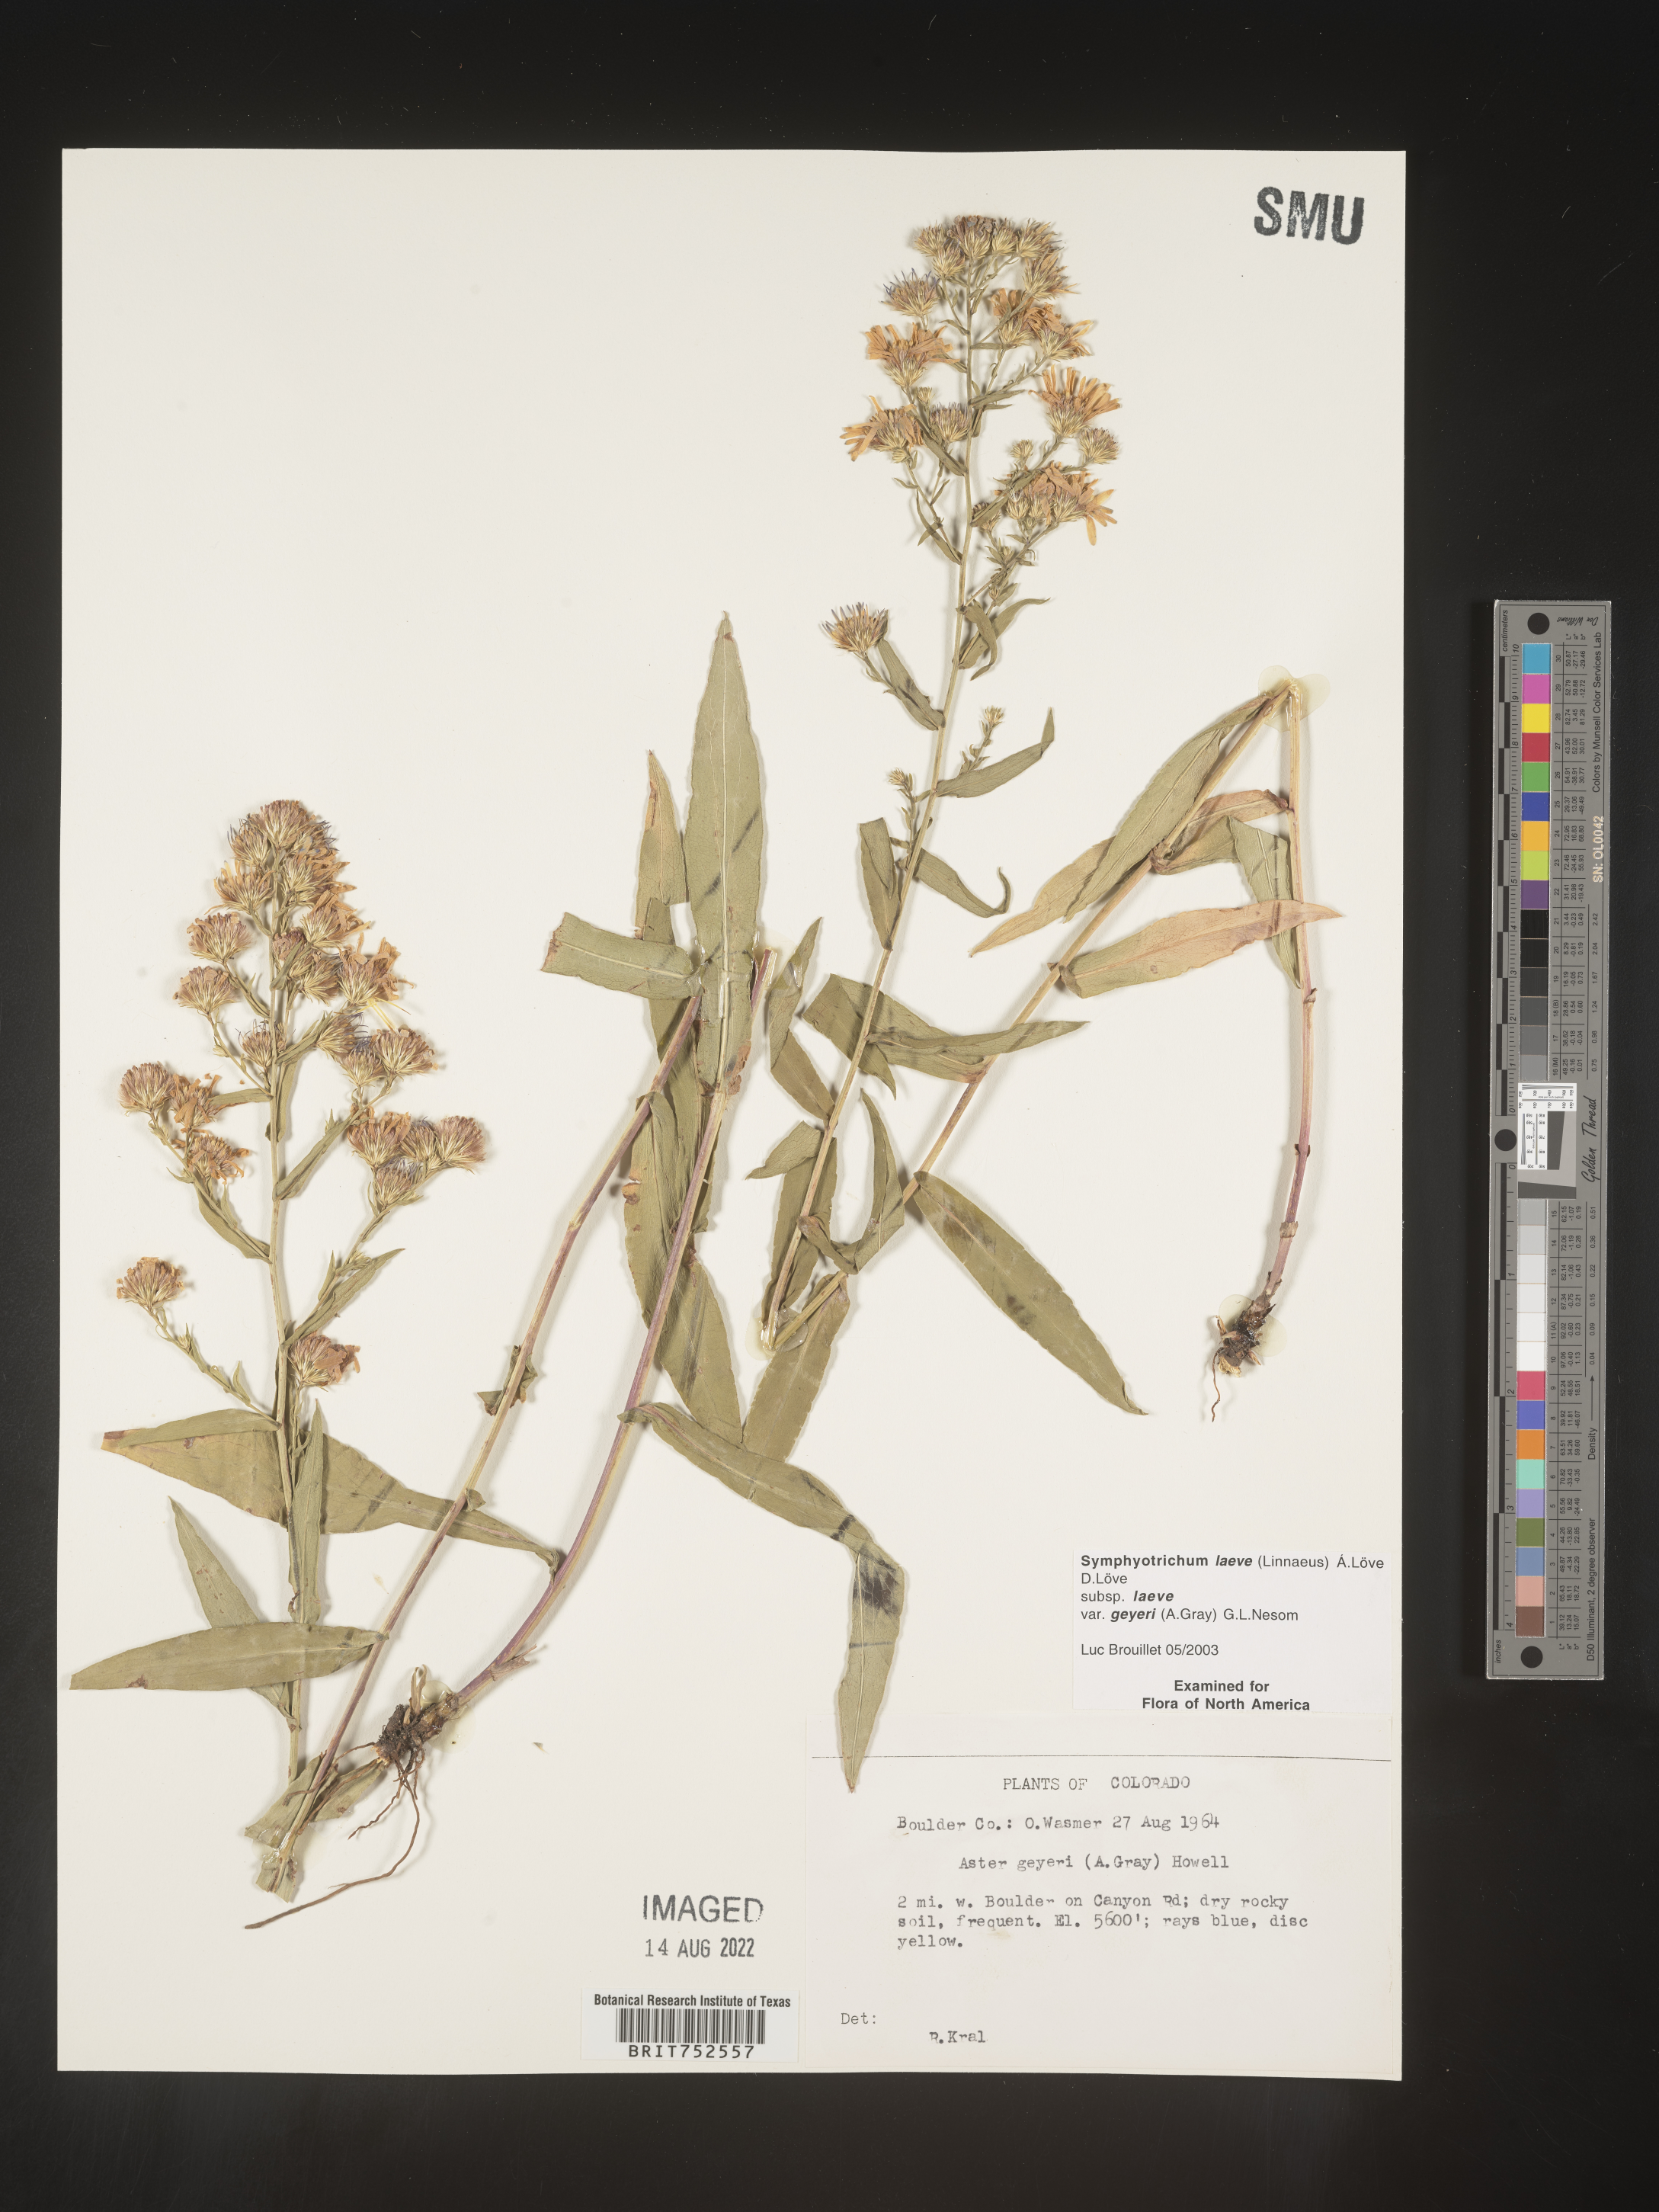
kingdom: Plantae
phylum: Tracheophyta
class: Magnoliopsida
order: Asterales
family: Asteraceae
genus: Symphyotrichum
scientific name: Symphyotrichum laeve
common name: Glaucous aster
